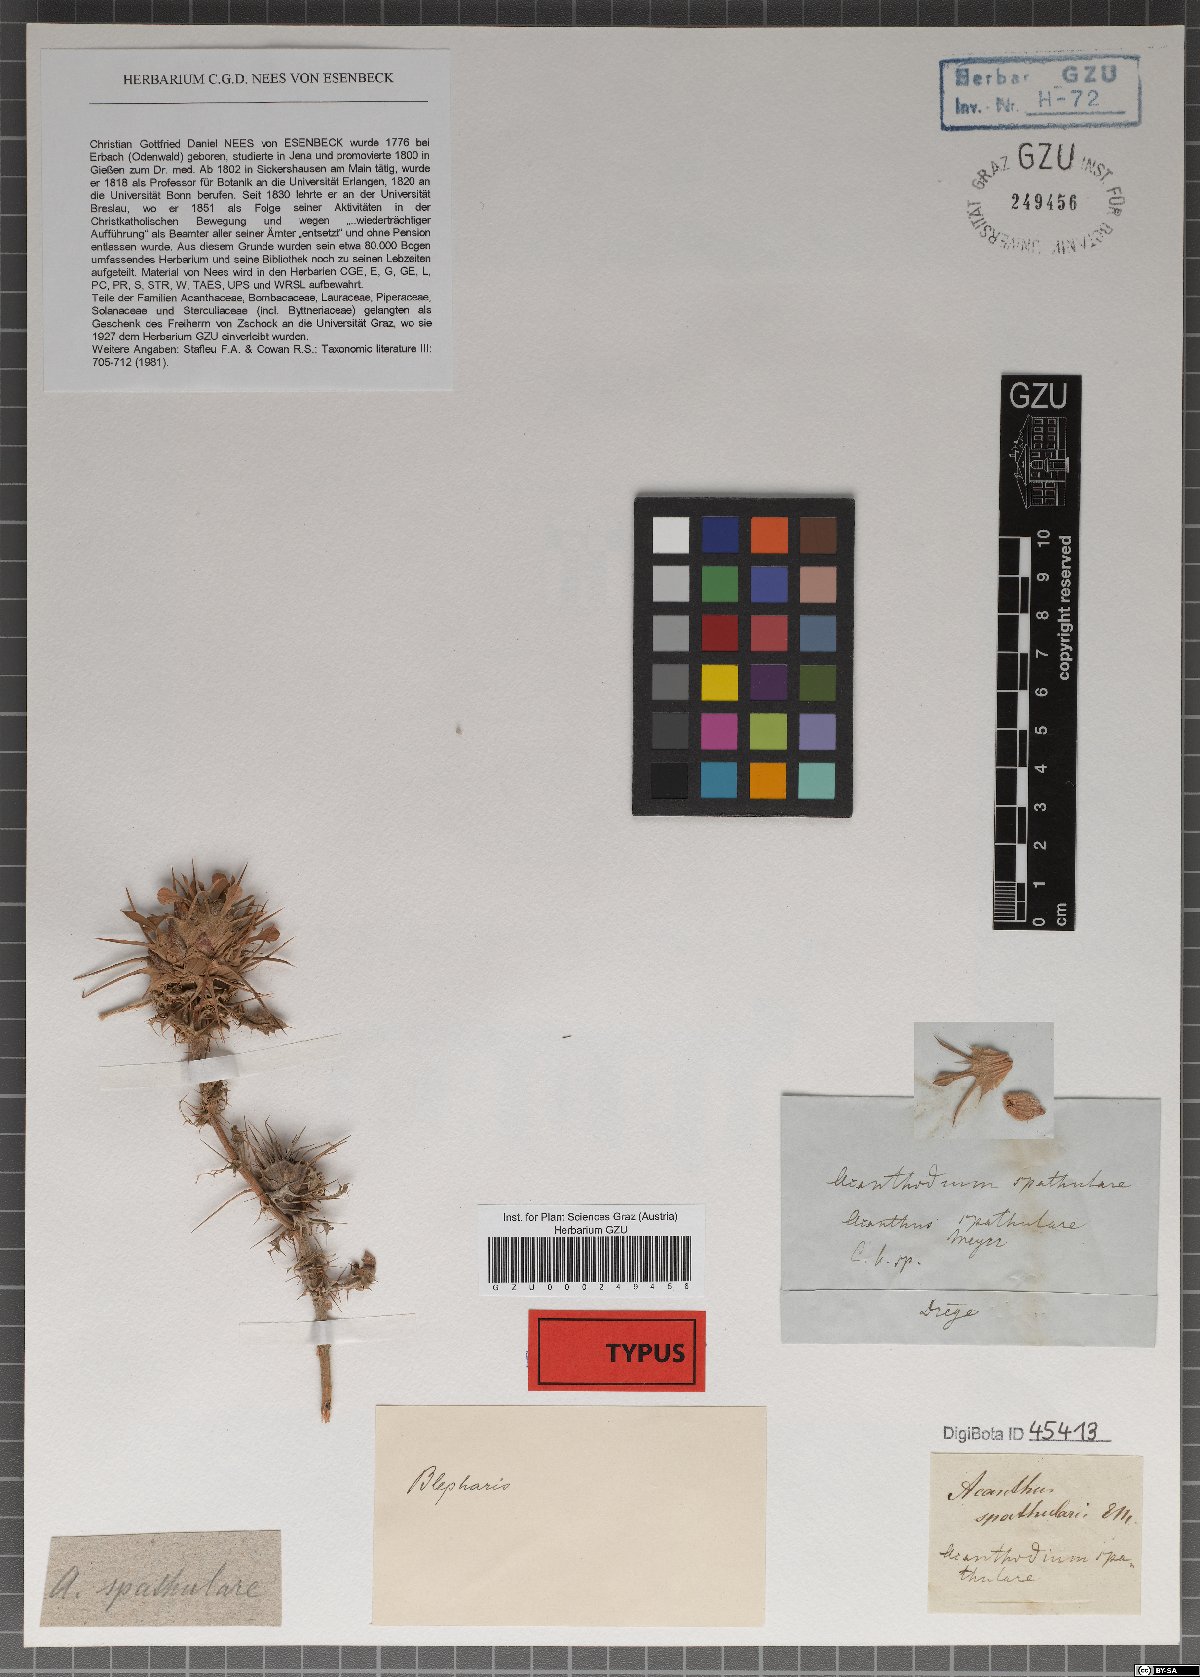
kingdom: Plantae
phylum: Tracheophyta
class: Magnoliopsida
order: Lamiales
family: Acanthaceae
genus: Acanthopsis
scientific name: Acanthopsis spathularis
